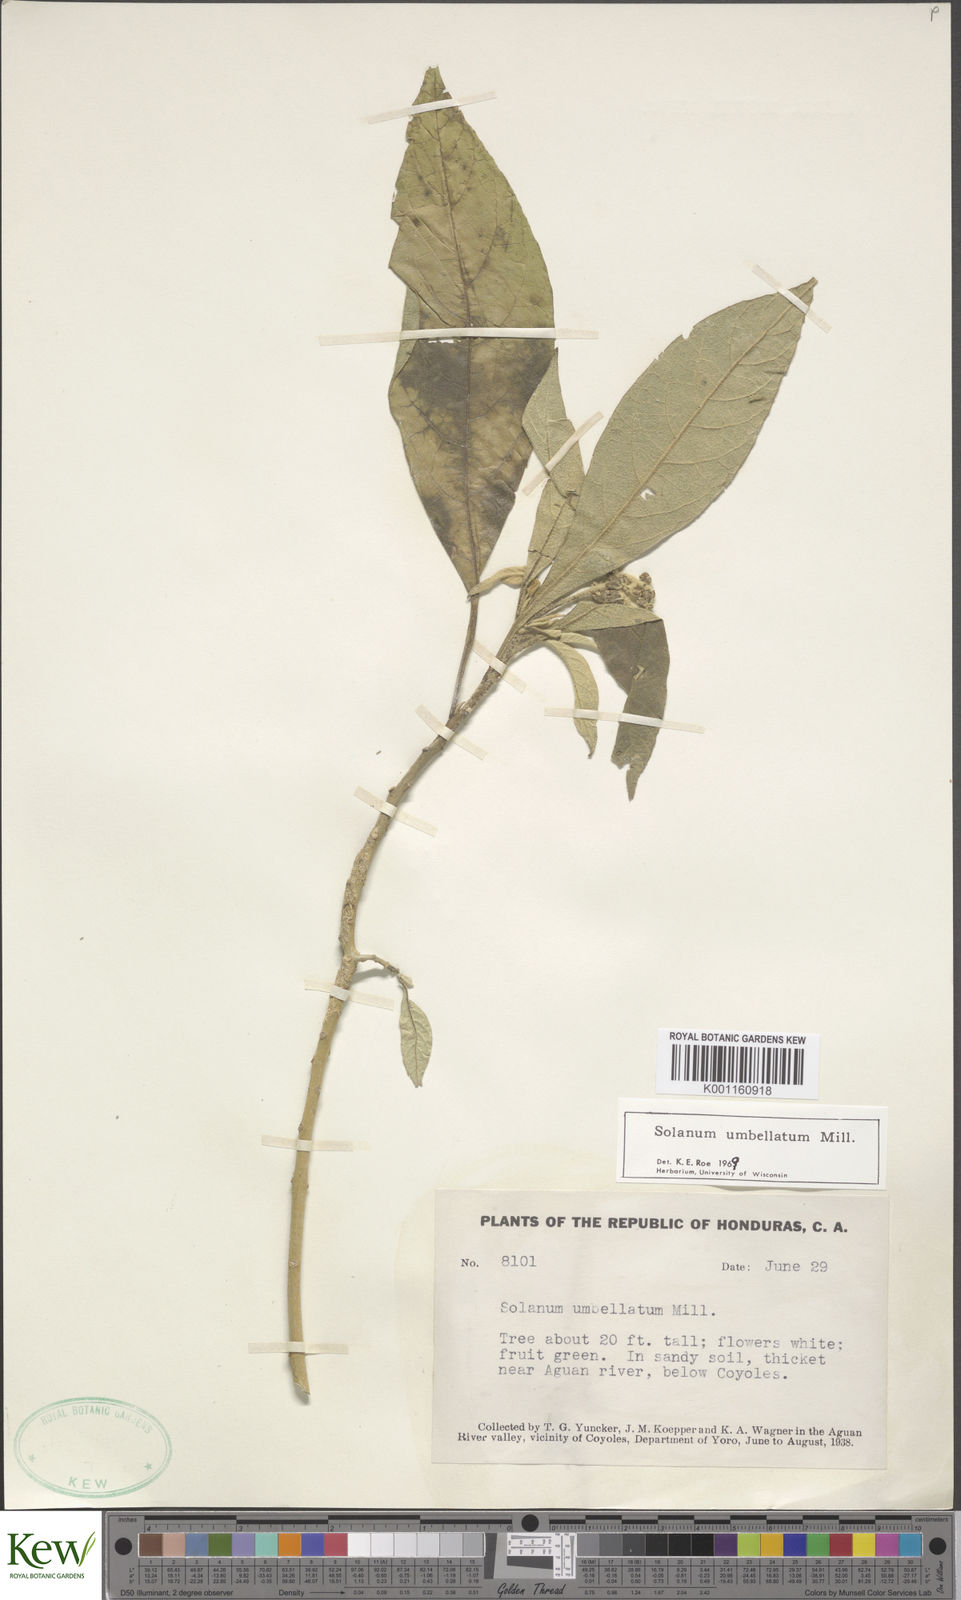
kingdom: Plantae
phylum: Tracheophyta
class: Magnoliopsida
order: Solanales
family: Solanaceae
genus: Solanum
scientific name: Solanum umbellatum
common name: Nightshade
